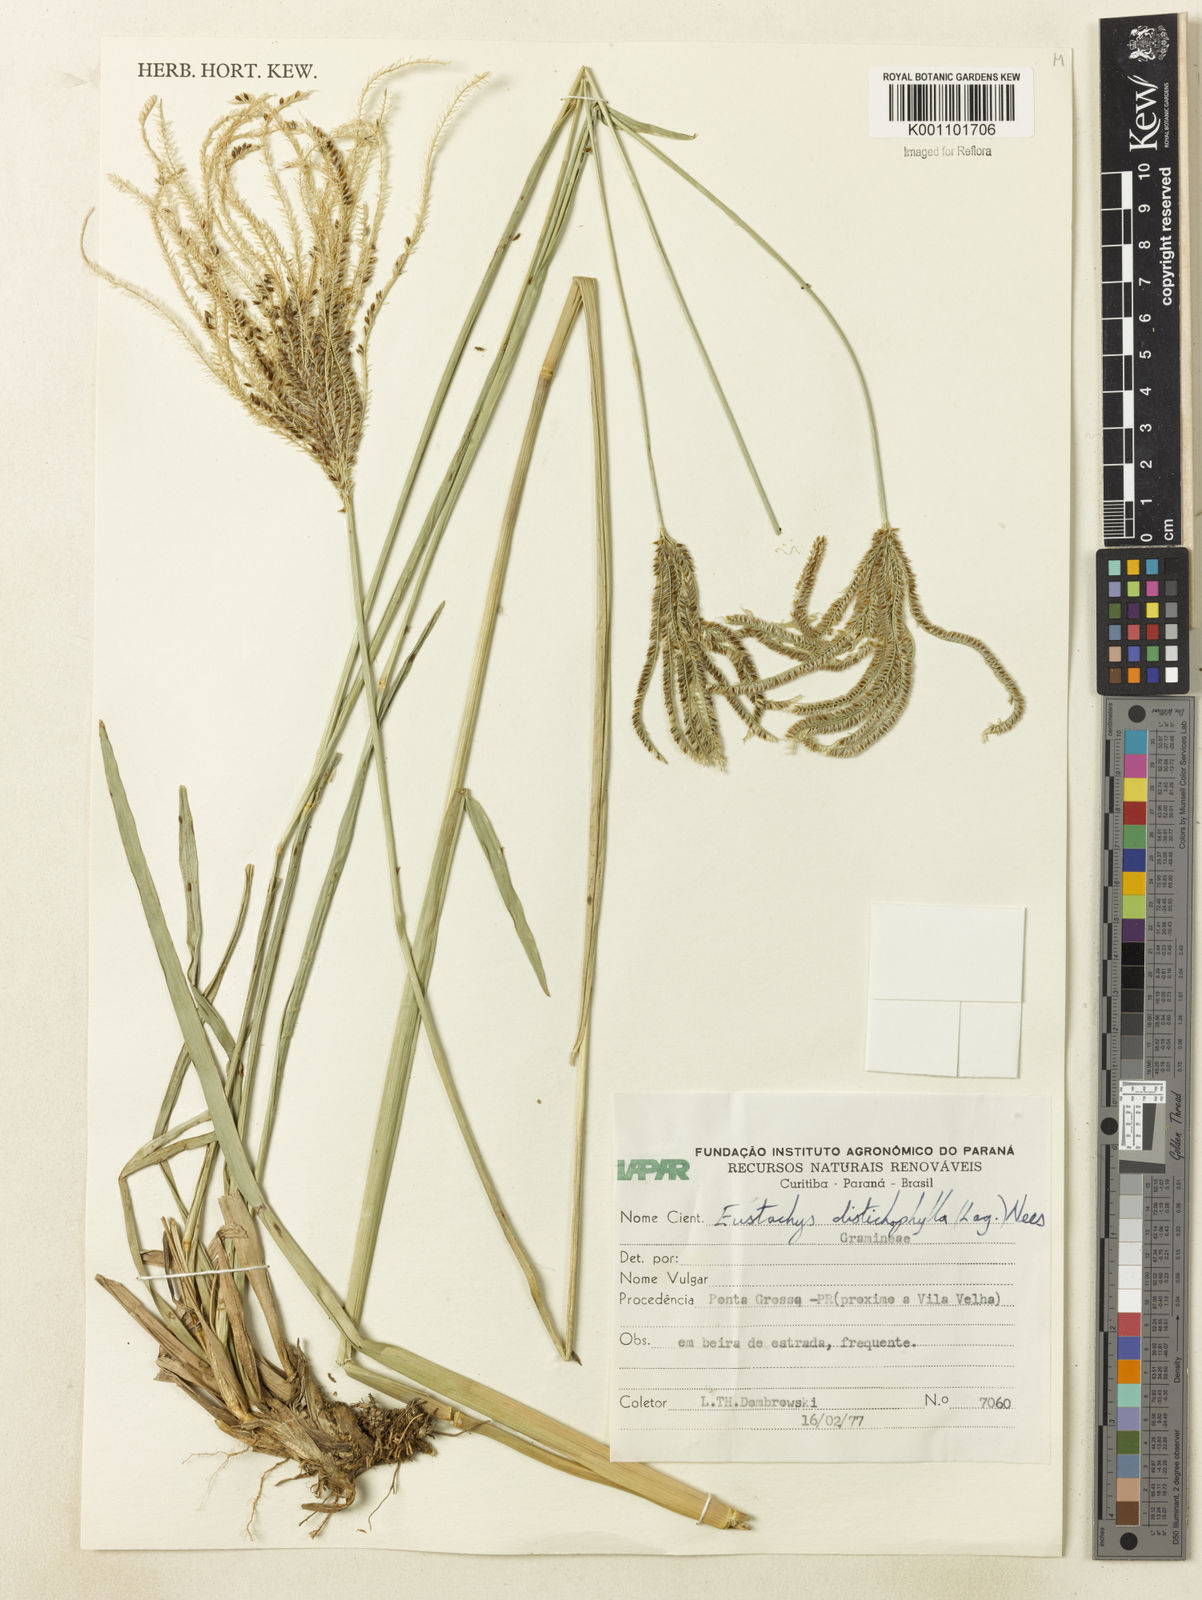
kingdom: Plantae
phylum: Tracheophyta
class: Liliopsida
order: Poales
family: Poaceae
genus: Eustachys
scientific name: Eustachys distichophylla
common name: Weeping fingergrass
